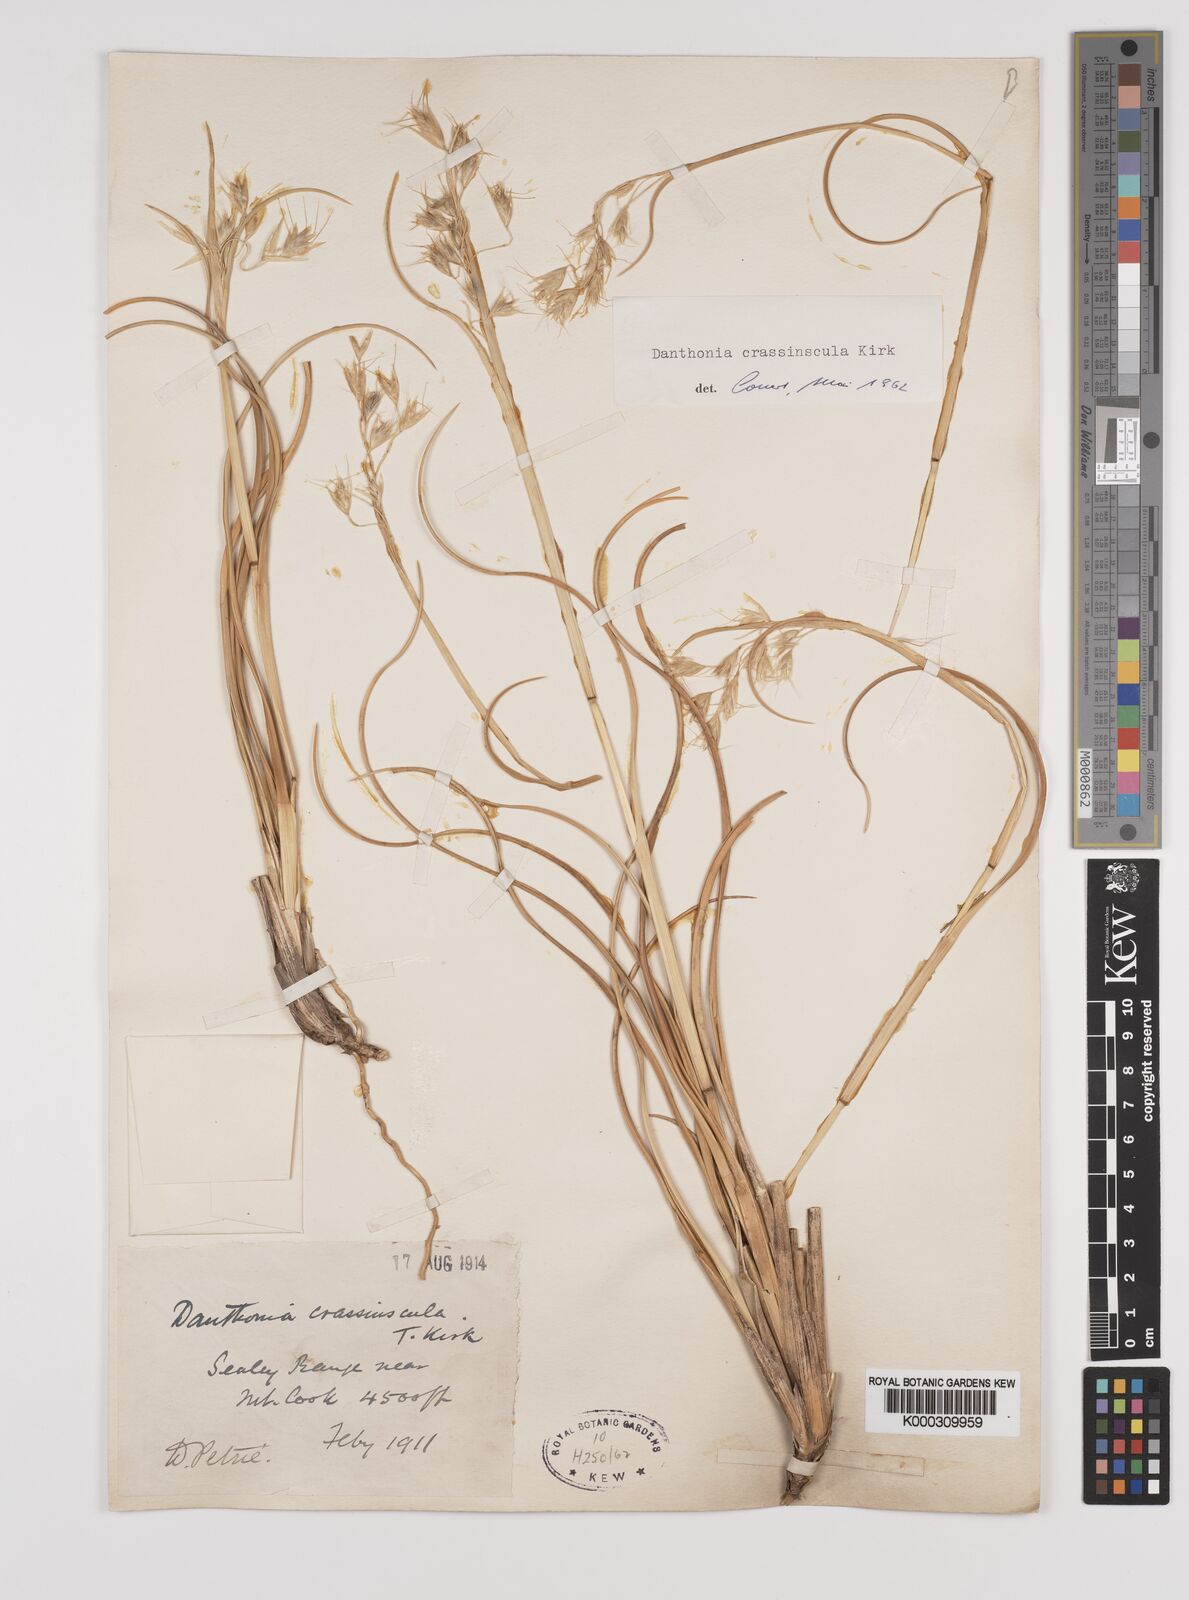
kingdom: Plantae
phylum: Tracheophyta
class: Liliopsida
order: Poales
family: Poaceae
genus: Chionochloa
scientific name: Chionochloa crassiuscula
